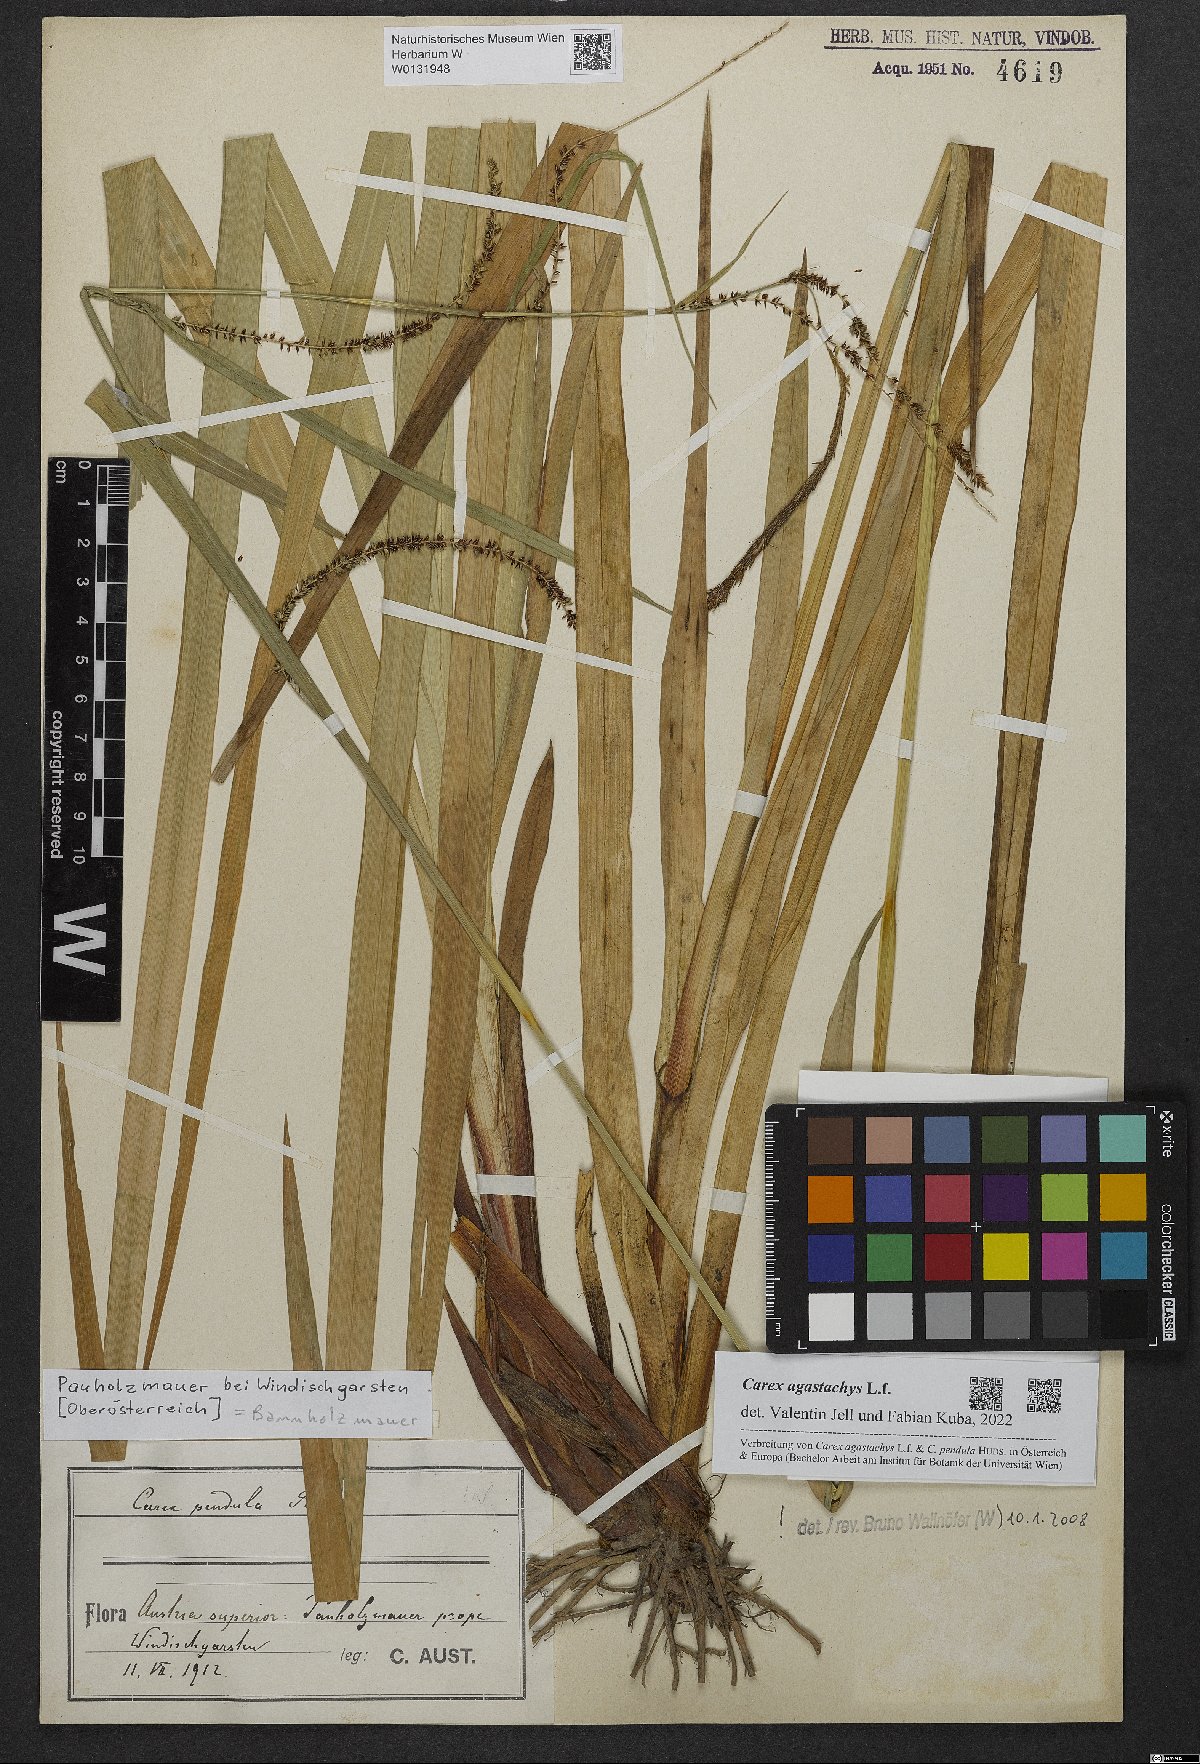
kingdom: Plantae
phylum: Tracheophyta
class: Liliopsida
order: Poales
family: Cyperaceae
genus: Carex
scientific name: Carex agastachys
